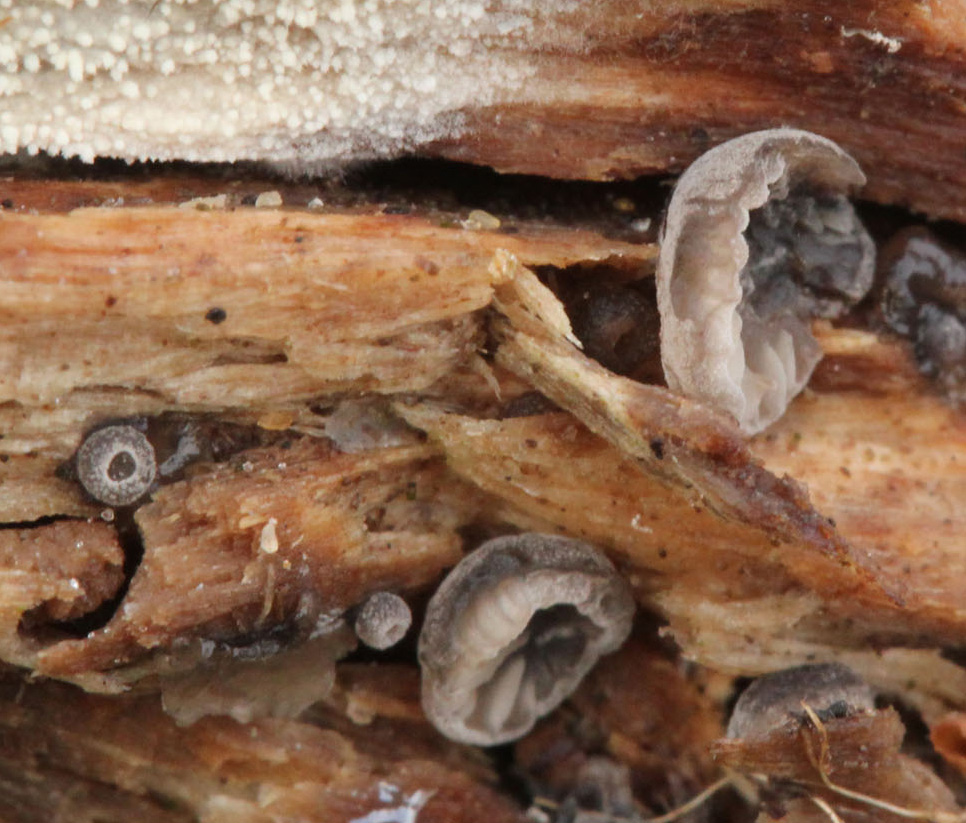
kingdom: Fungi
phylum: Basidiomycota
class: Agaricomycetes
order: Agaricales
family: Pleurotaceae
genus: Resupinatus
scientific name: Resupinatus applicatus
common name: lysfiltet barkhat
